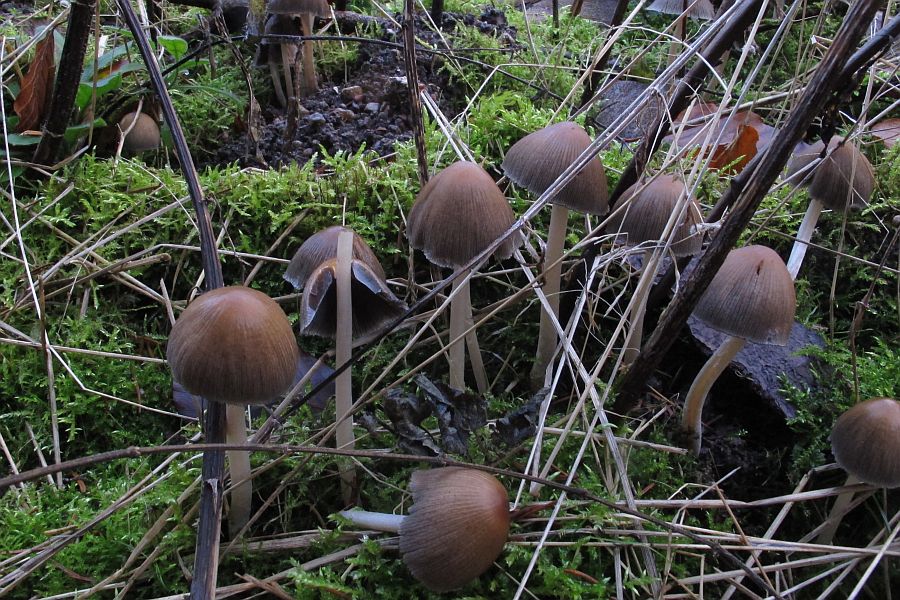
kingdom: Fungi
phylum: Basidiomycota
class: Agaricomycetes
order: Agaricales
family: Psathyrellaceae
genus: Psathyrella
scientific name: Psathyrella piluliformis
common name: lysstokket mørkhat
